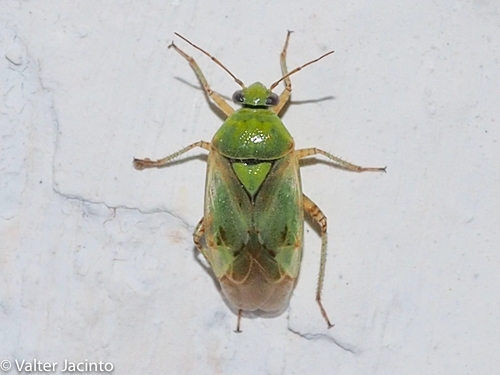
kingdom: Animalia
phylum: Arthropoda
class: Insecta
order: Hemiptera
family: Miridae
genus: Lygus
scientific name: Lygus gemellatus
